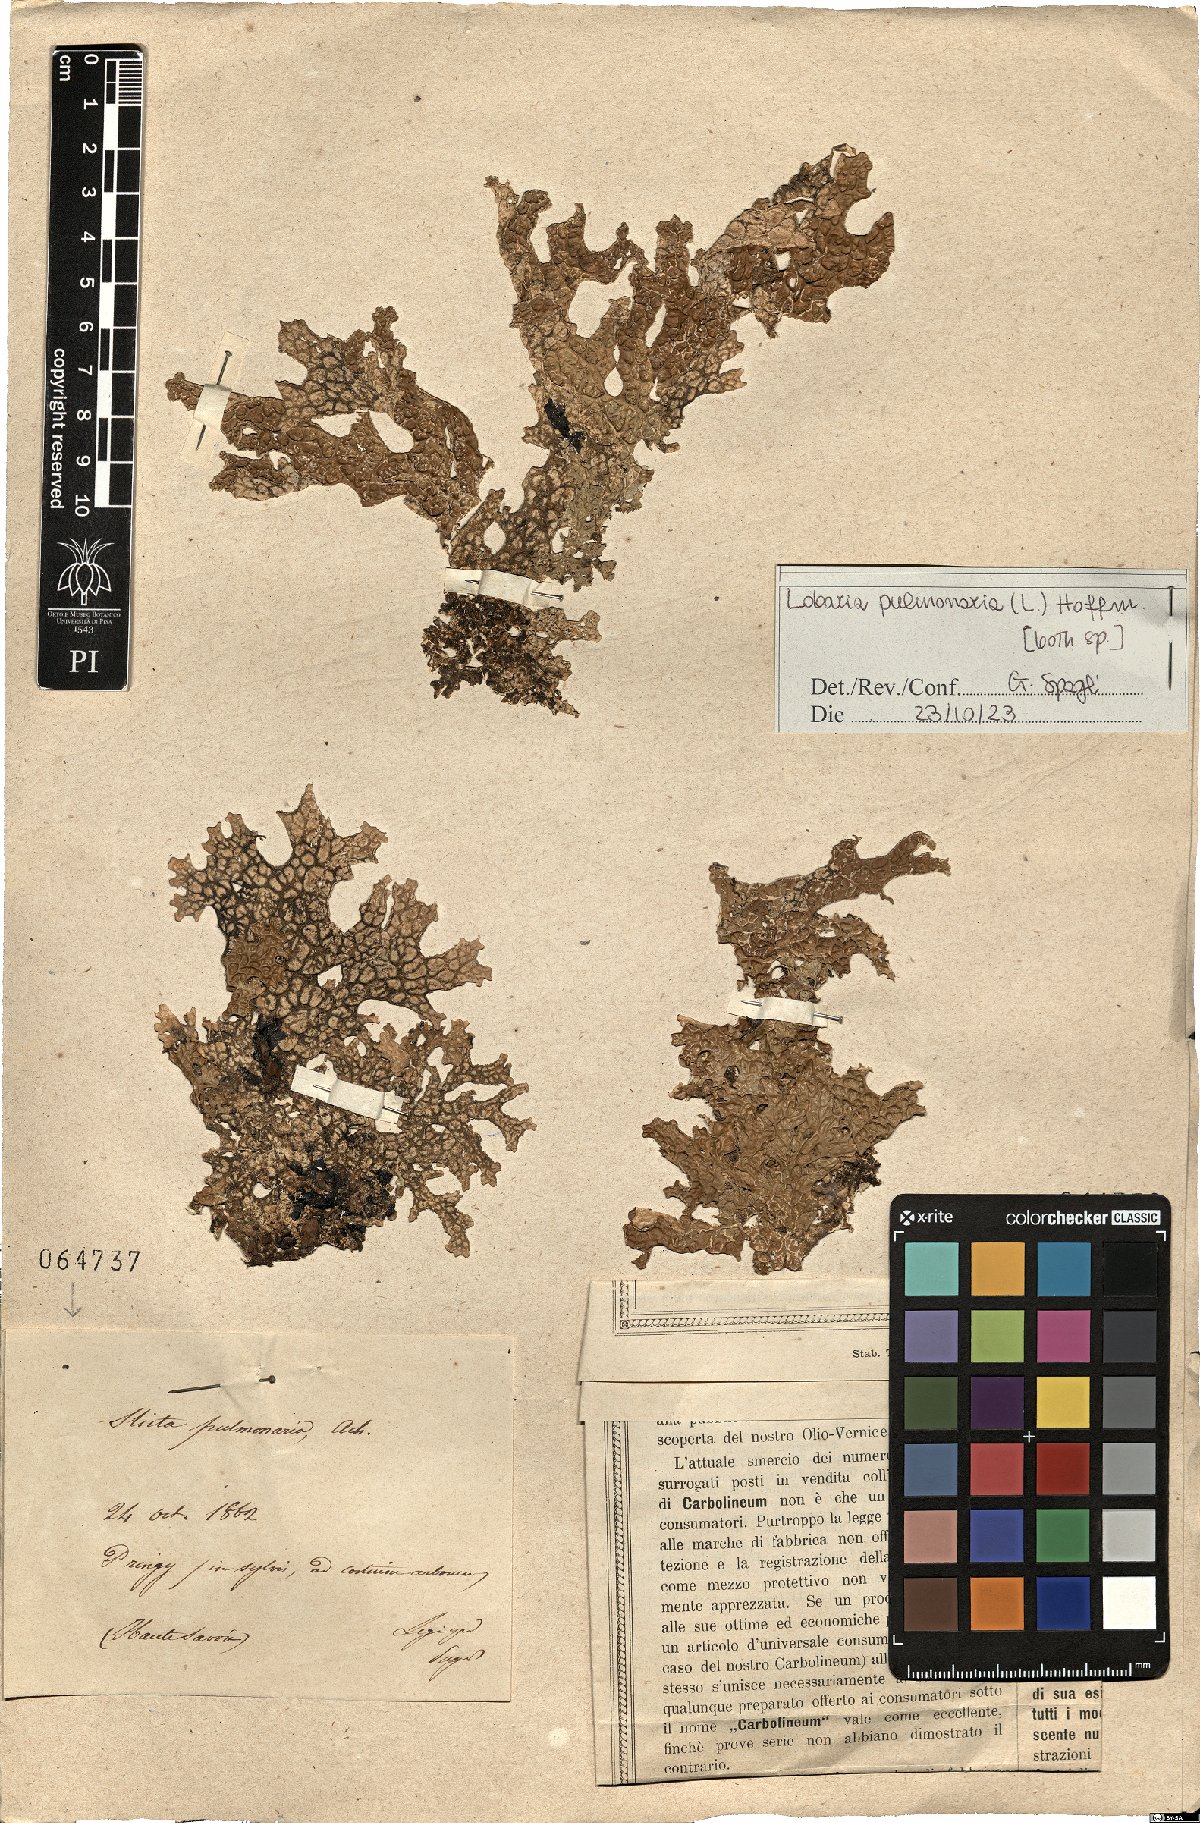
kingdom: Fungi
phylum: Ascomycota
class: Lecanoromycetes
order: Peltigerales
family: Lobariaceae
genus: Lobaria
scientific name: Lobaria pulmonaria
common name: Lungwort
